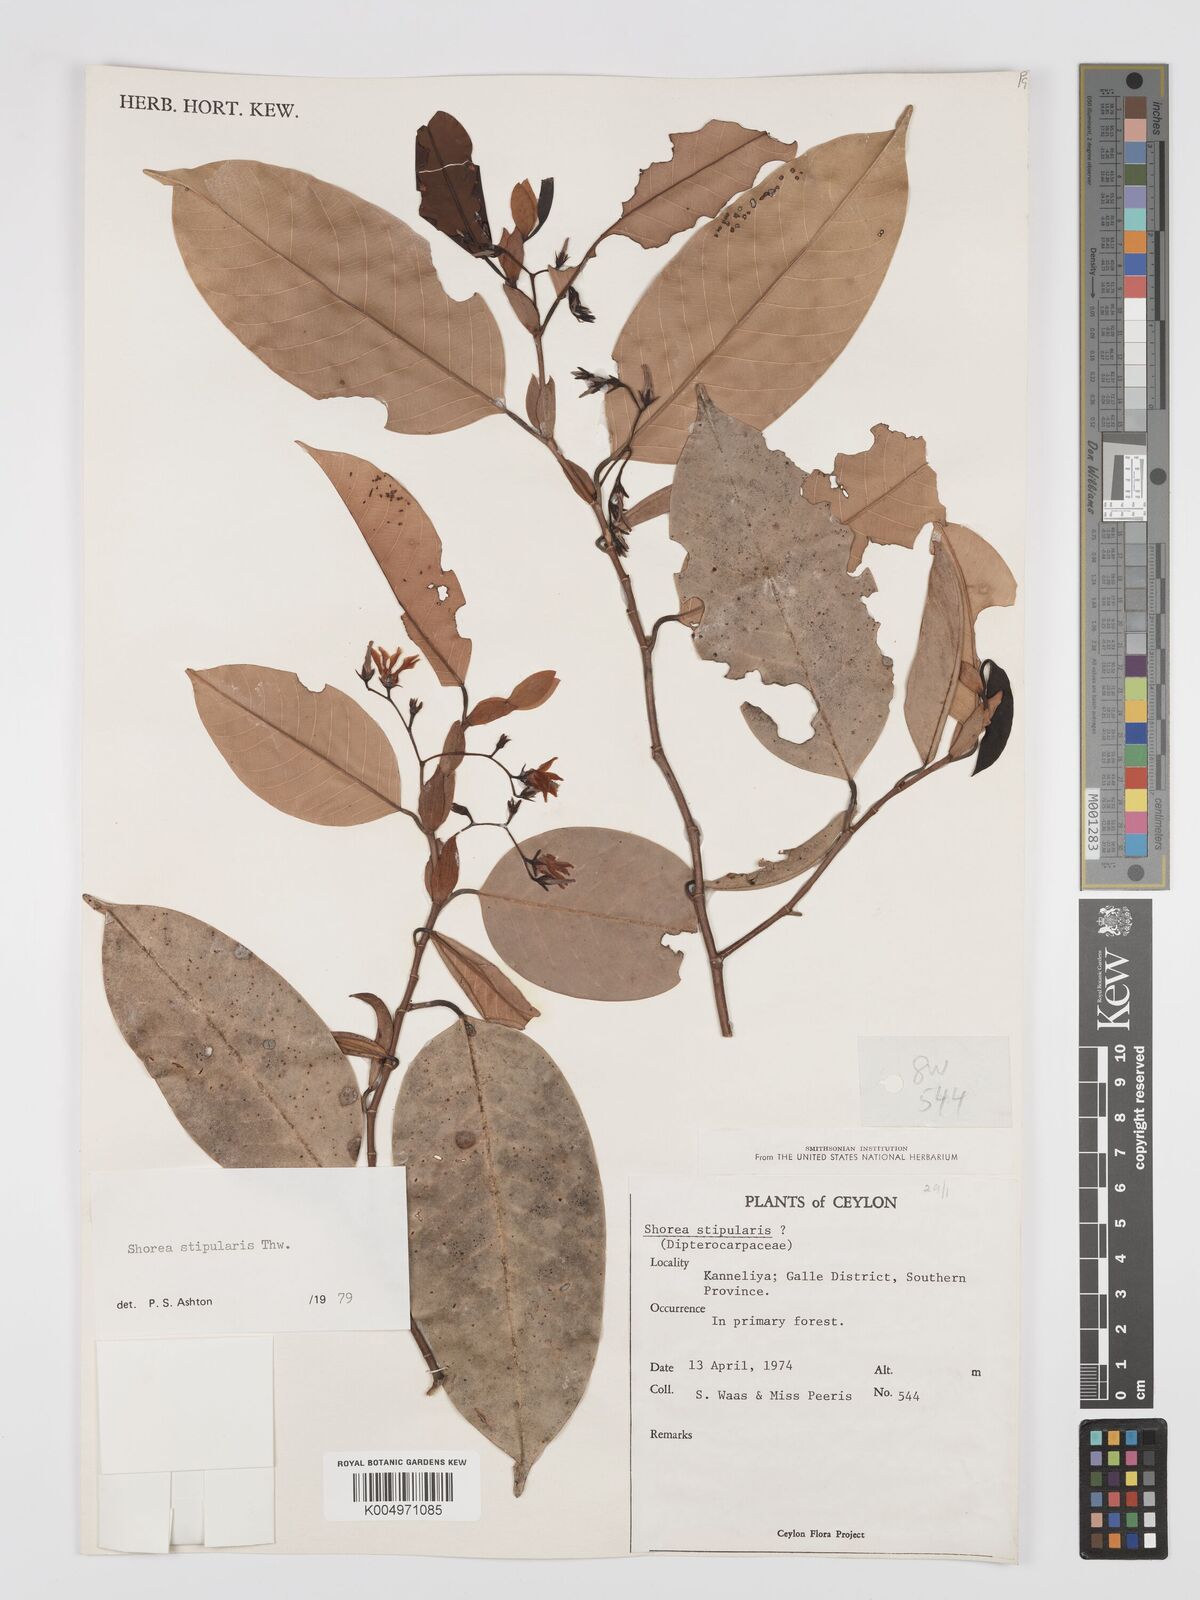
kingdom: Plantae
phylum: Tracheophyta
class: Magnoliopsida
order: Malvales
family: Dipterocarpaceae
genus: Anthoshorea
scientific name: Anthoshorea stipularis
